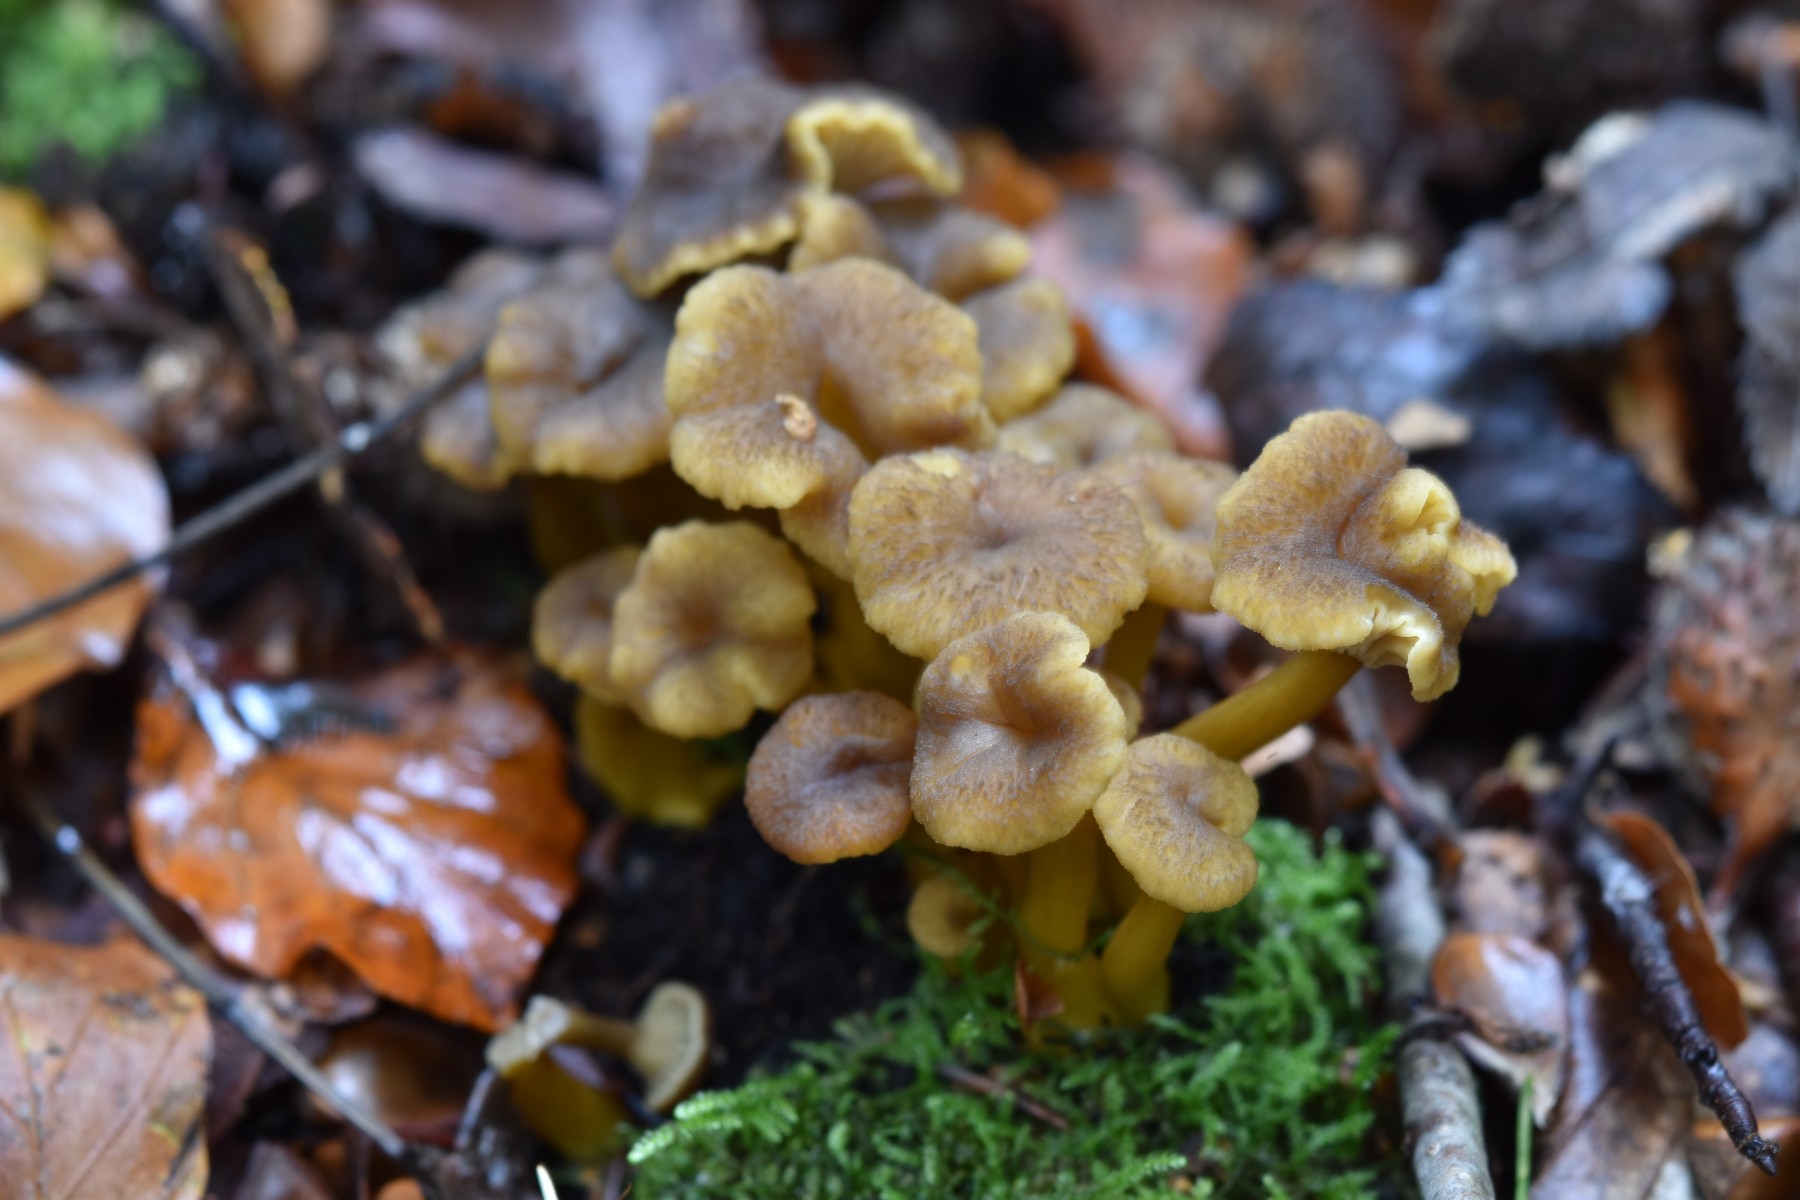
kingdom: Fungi
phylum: Basidiomycota
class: Agaricomycetes
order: Cantharellales
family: Hydnaceae
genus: Craterellus
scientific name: Craterellus tubaeformis
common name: tragt-kantarel
